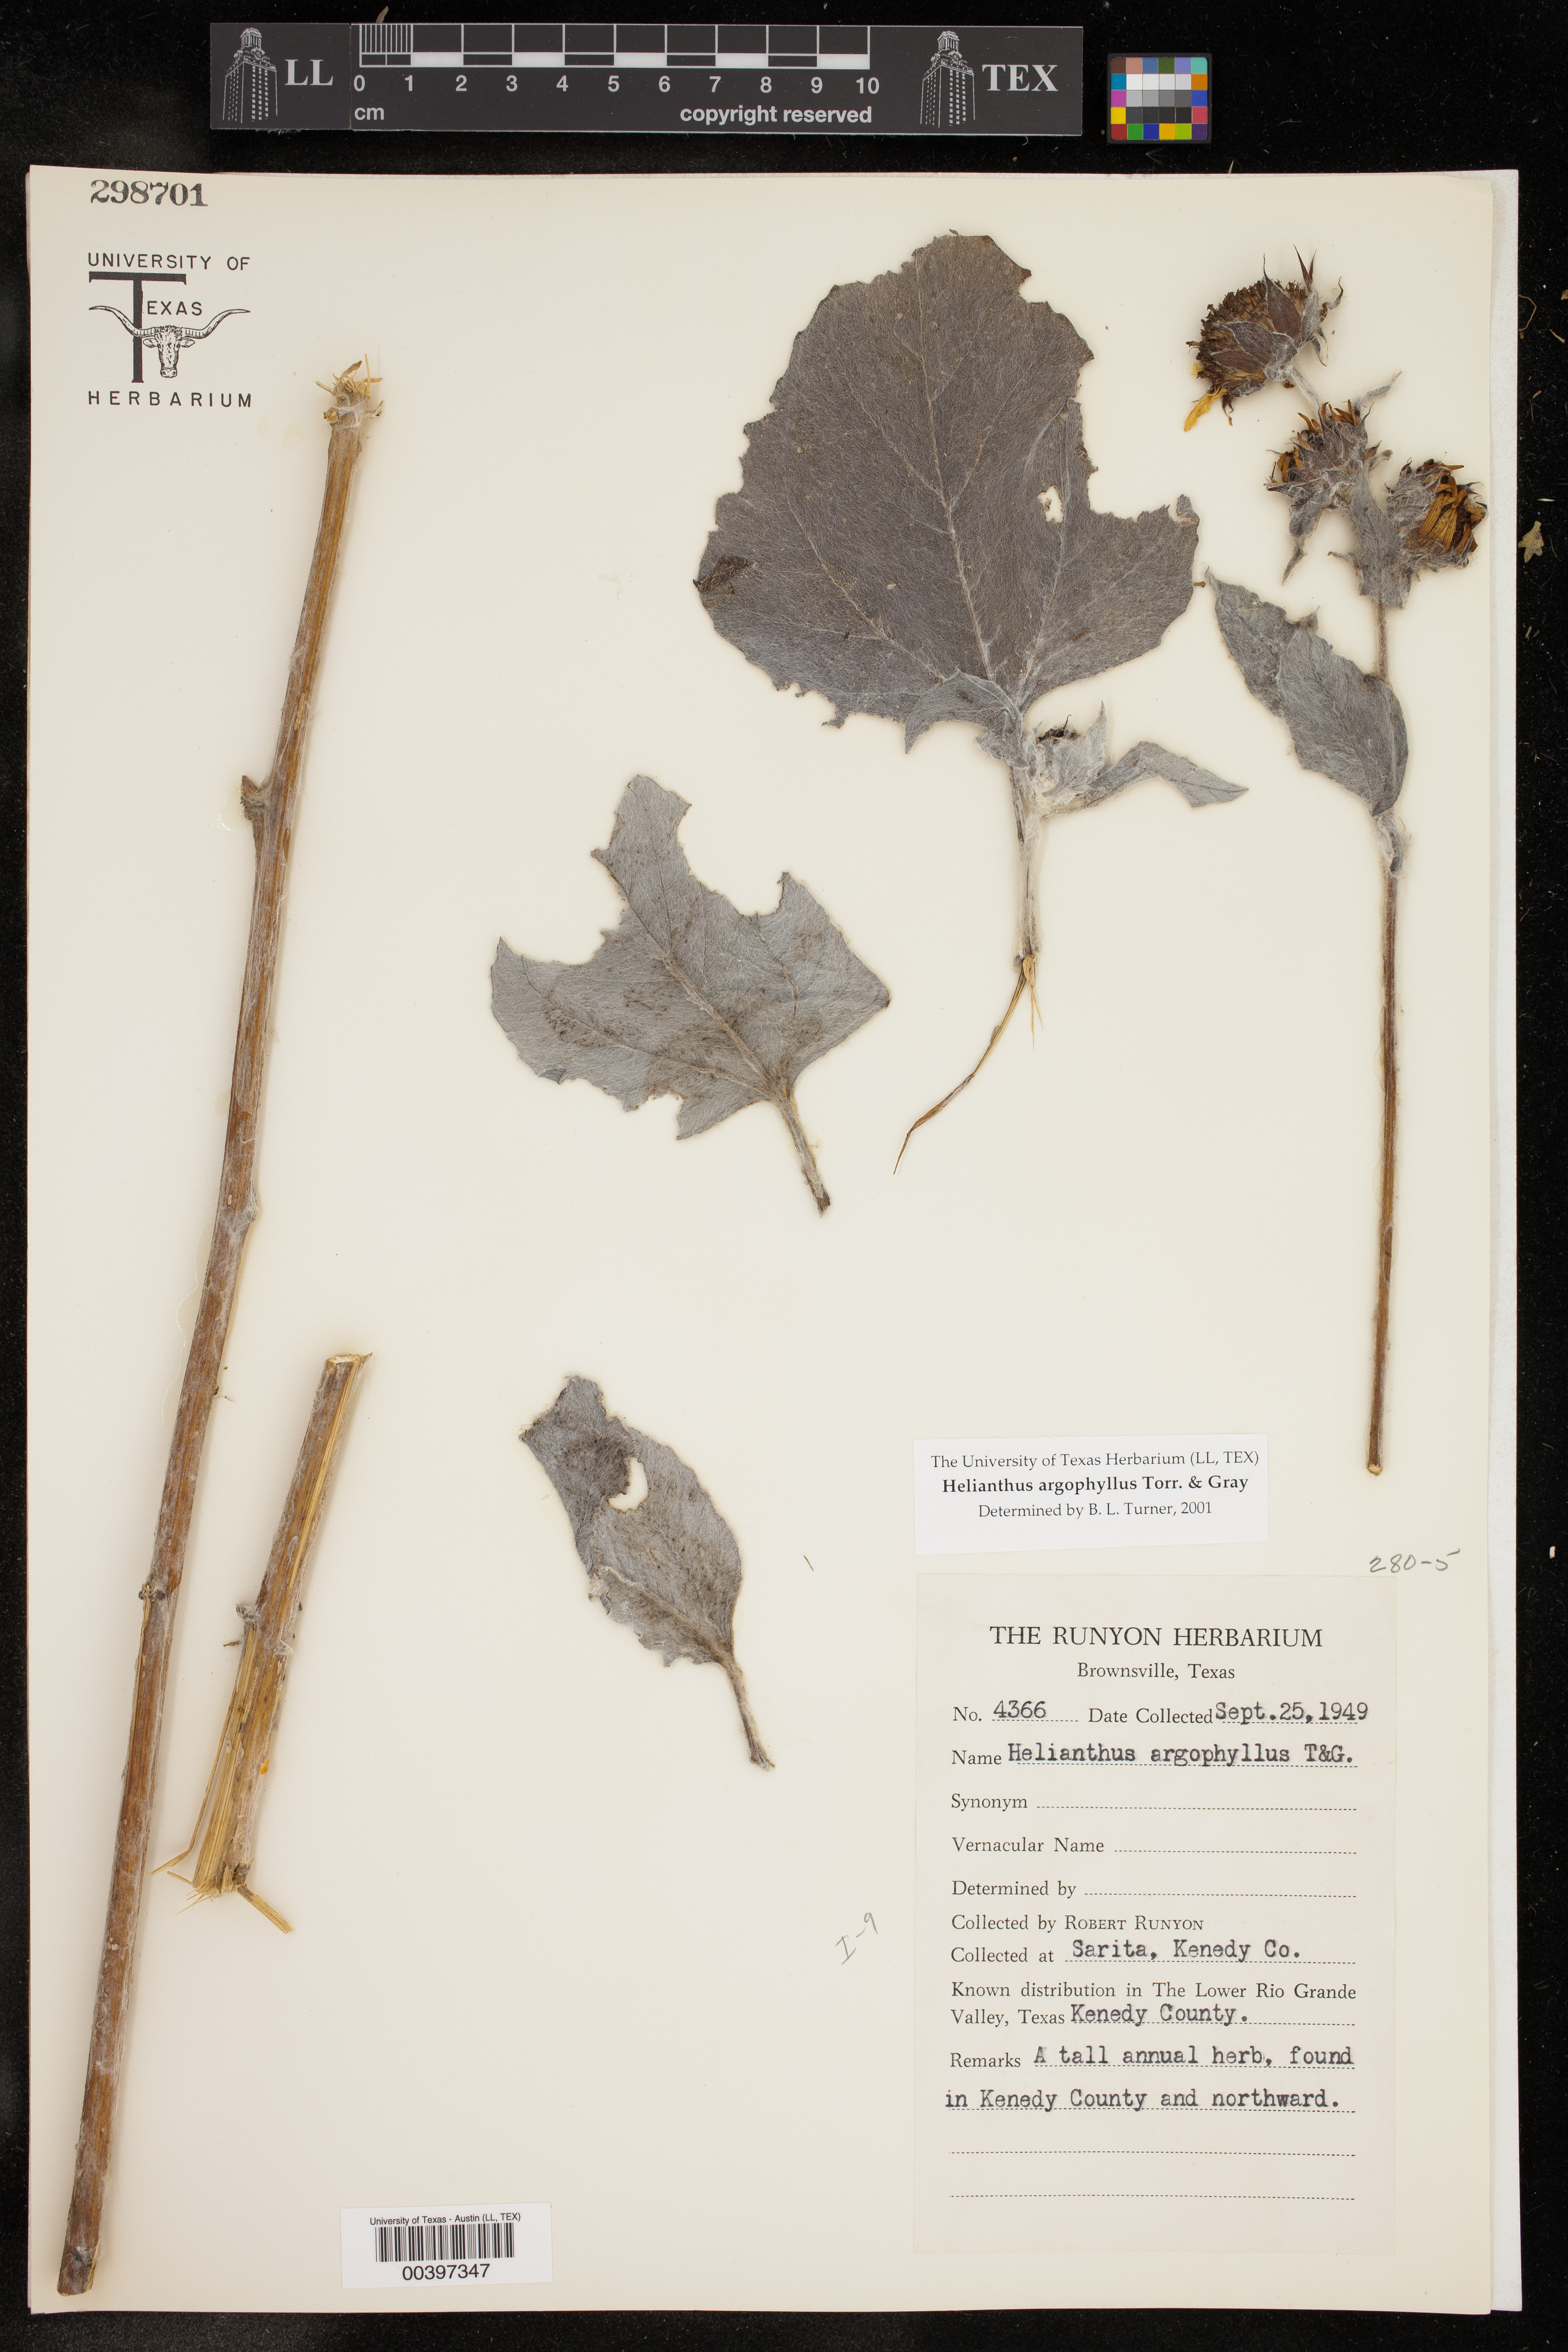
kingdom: Plantae
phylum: Tracheophyta
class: Magnoliopsida
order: Asterales
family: Asteraceae
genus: Helianthus
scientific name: Helianthus argophyllus
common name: Silverleaf sunflower
